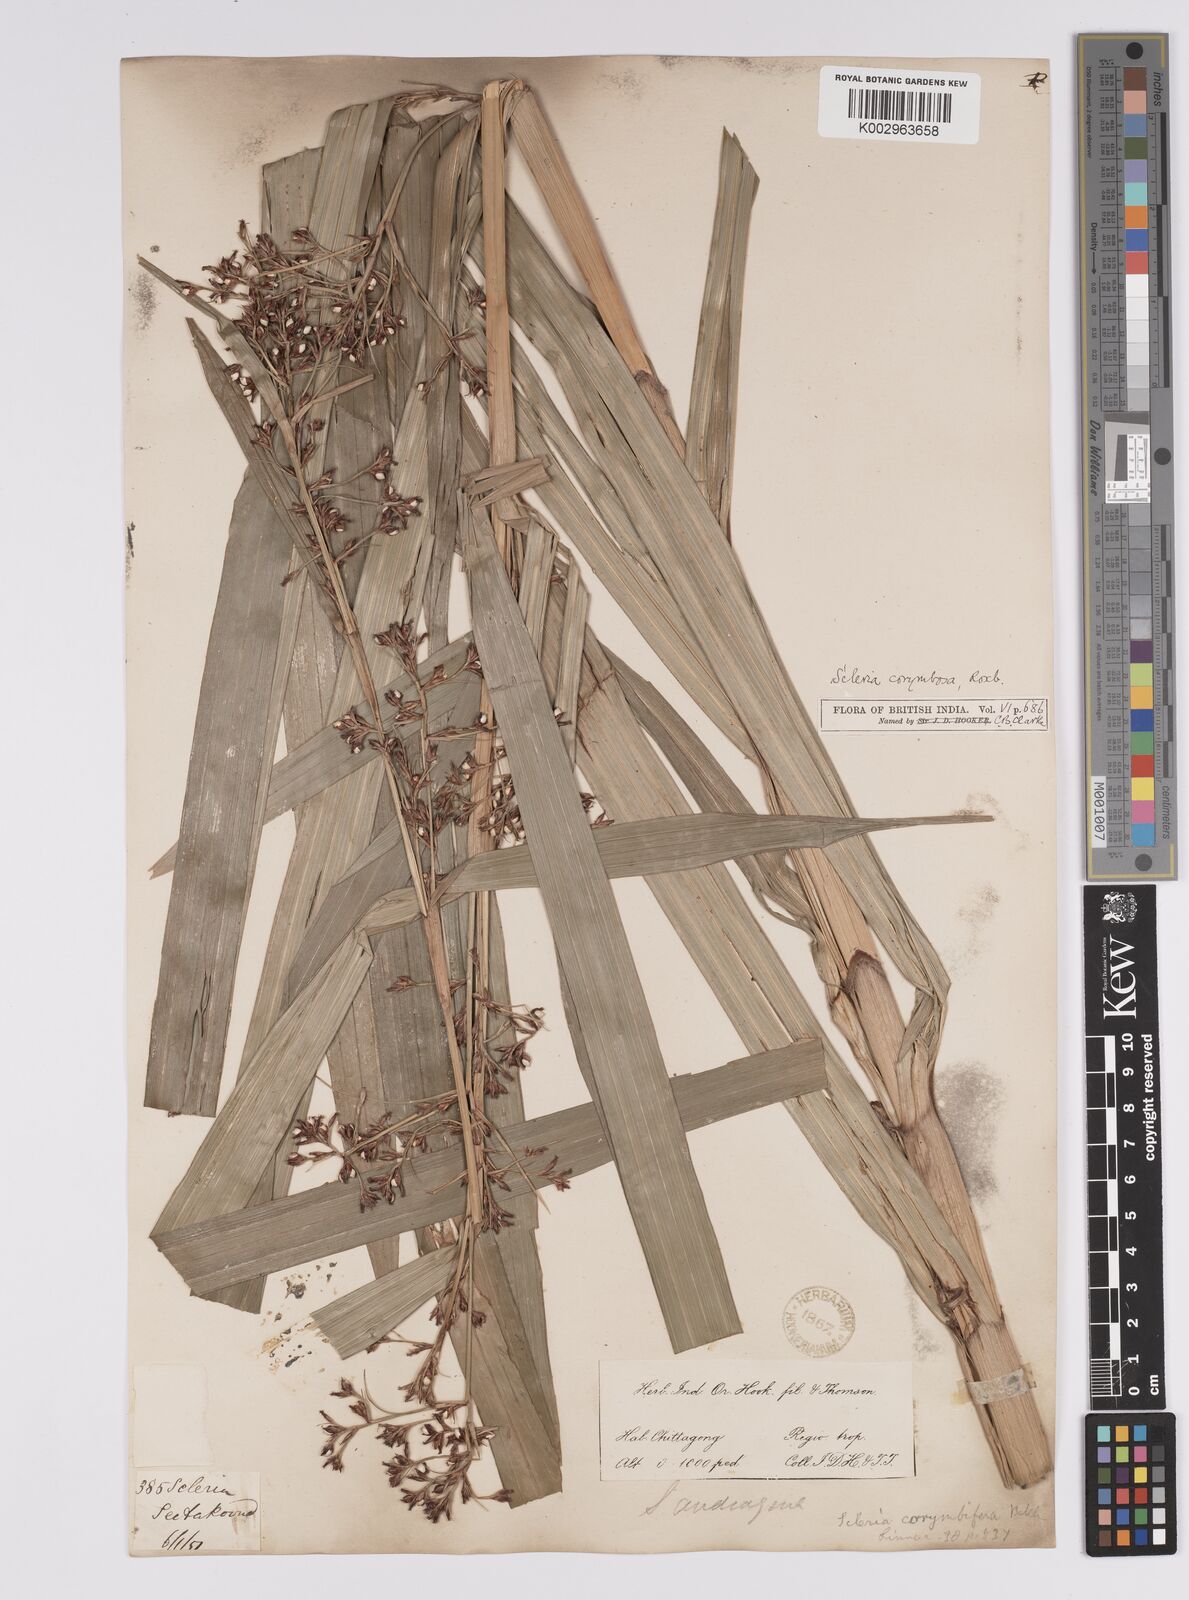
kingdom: Plantae
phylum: Tracheophyta
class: Liliopsida
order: Poales
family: Cyperaceae
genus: Scleria
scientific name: Scleria corymbosa
